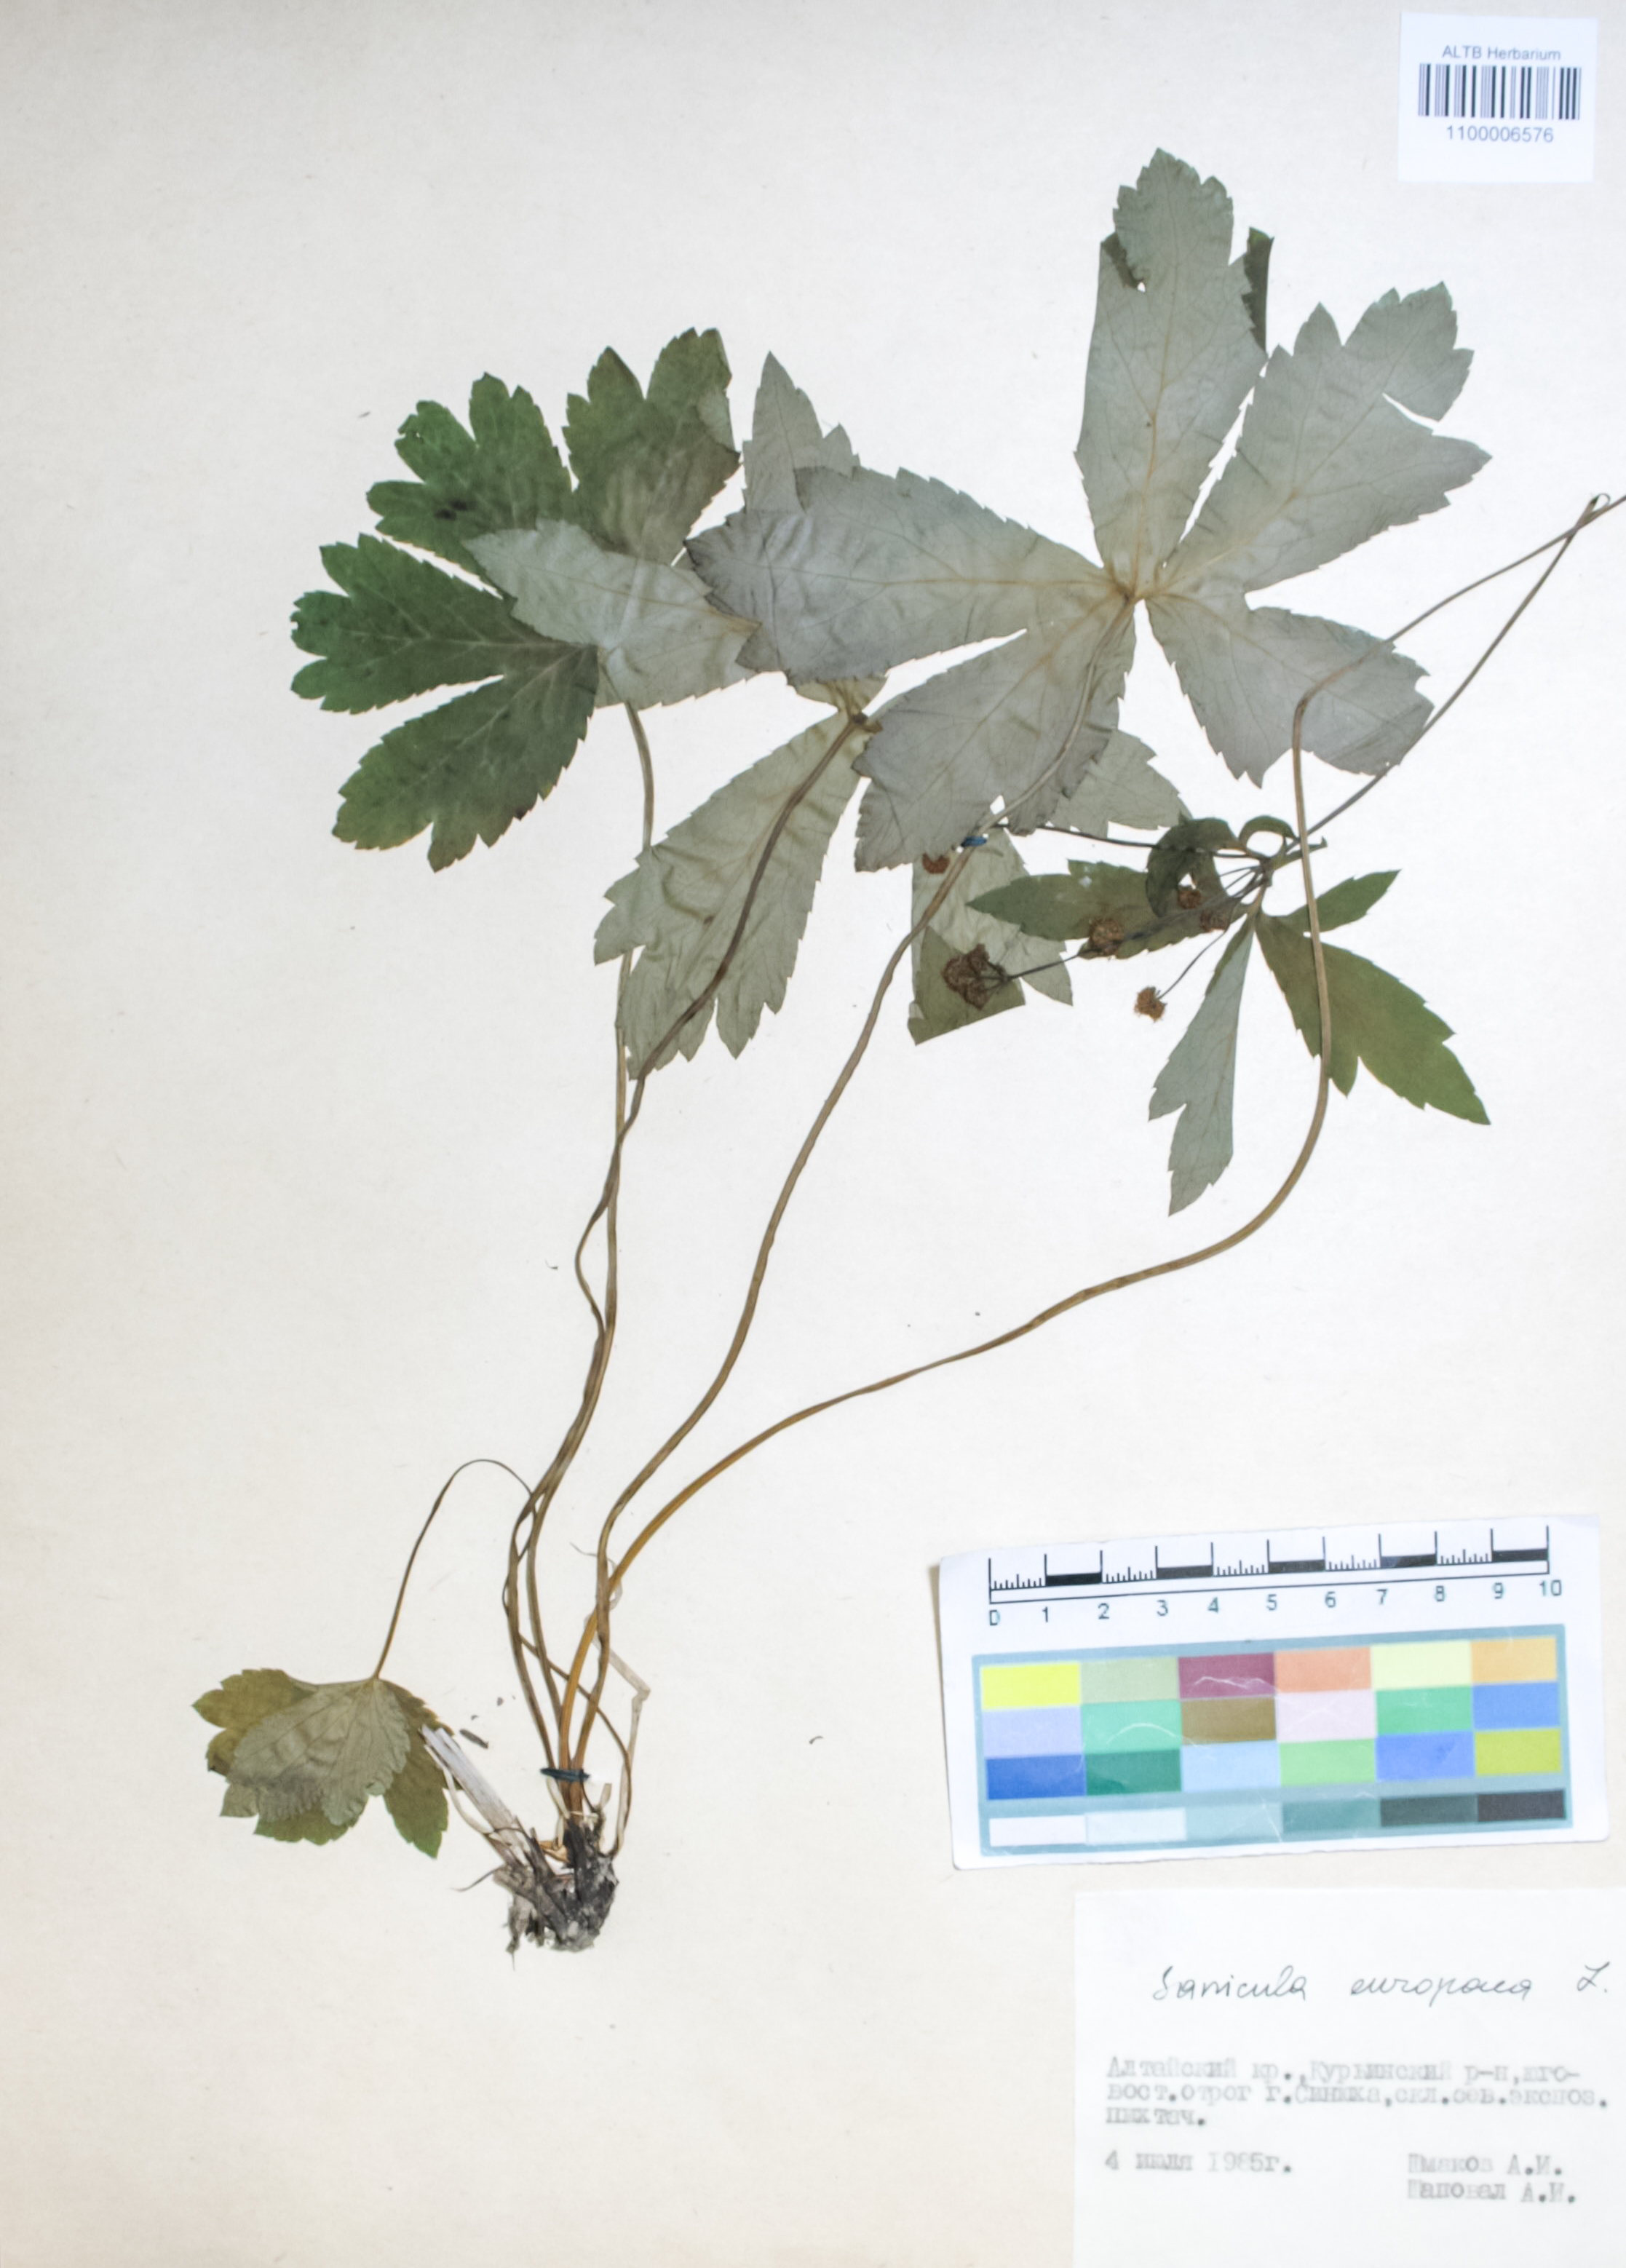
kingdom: Plantae
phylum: Tracheophyta
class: Magnoliopsida
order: Apiales
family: Apiaceae
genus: Sanicula
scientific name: Sanicula europaea
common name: Sanicle
